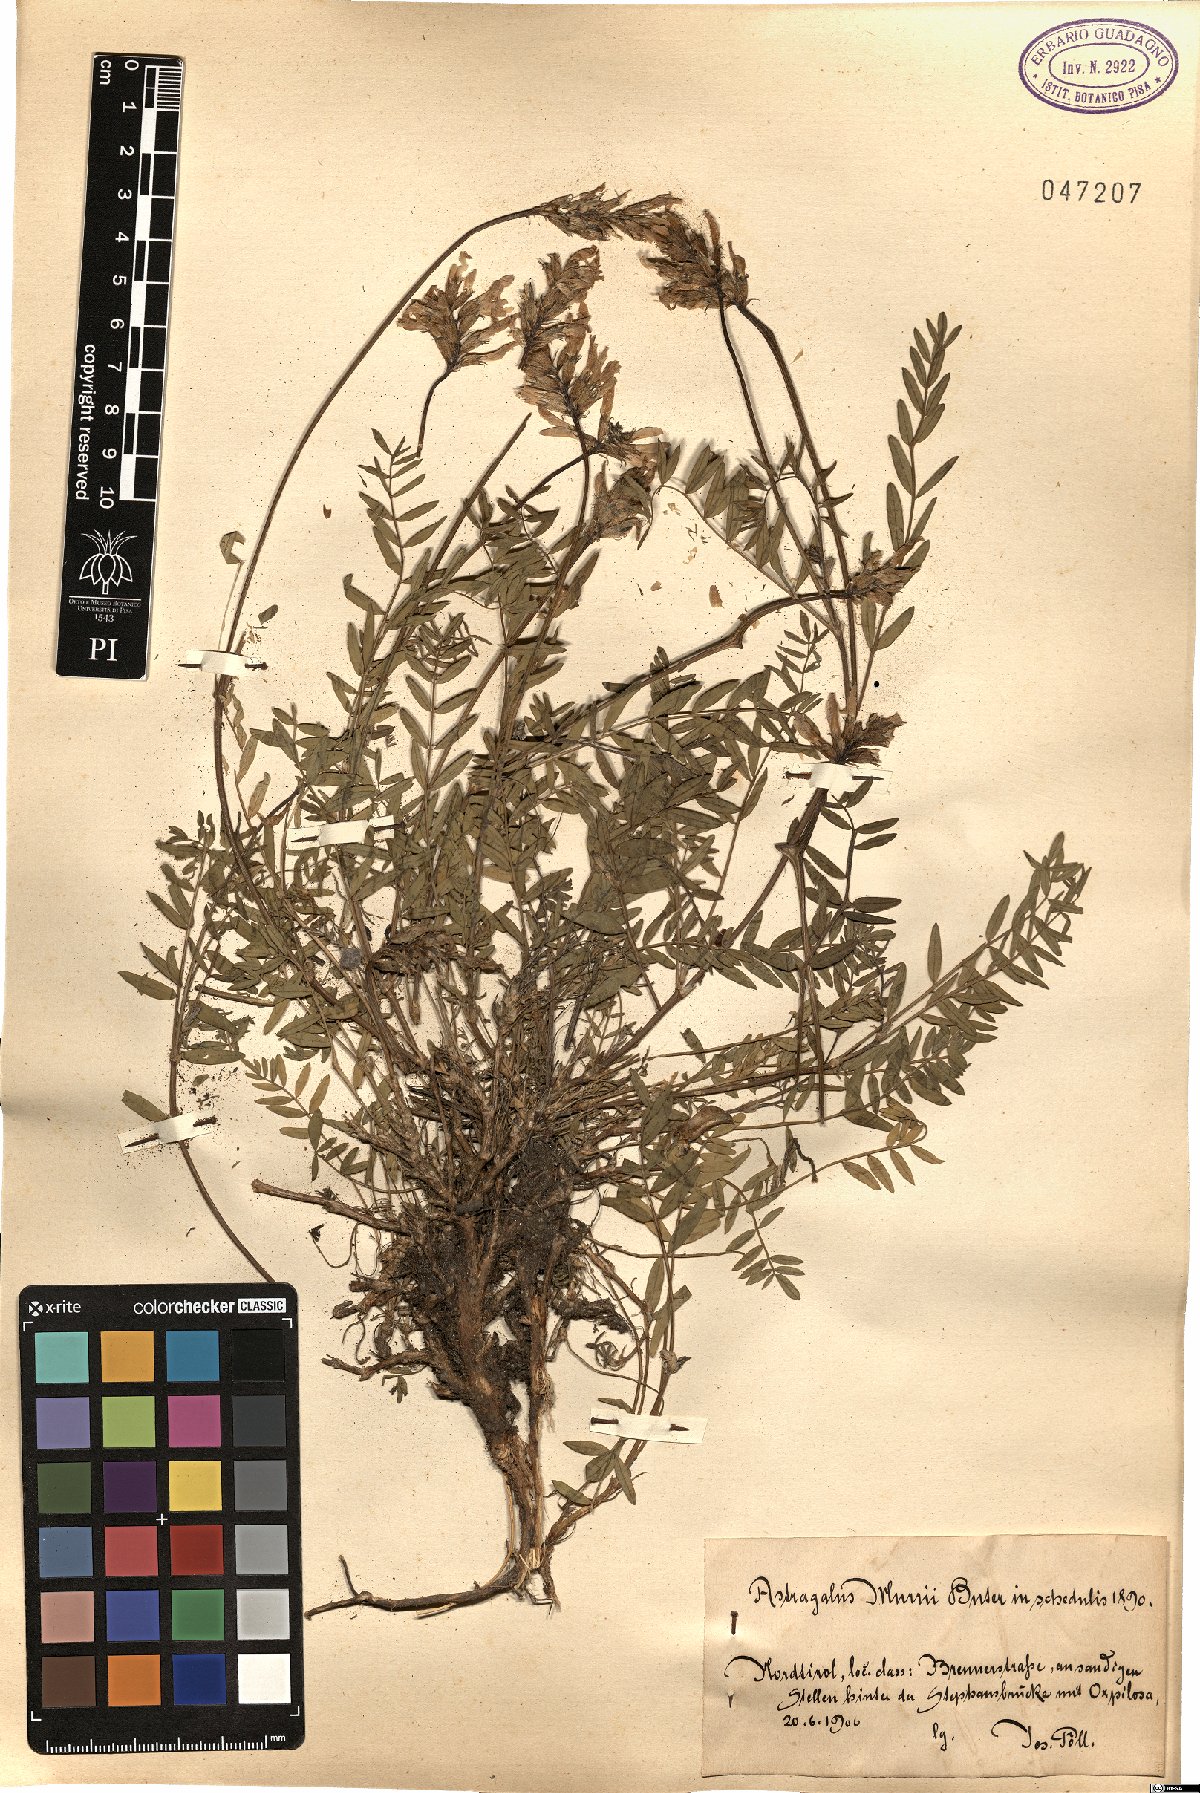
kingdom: Plantae
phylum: Tracheophyta
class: Magnoliopsida
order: Fabales
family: Fabaceae
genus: Astragalus
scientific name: Astragalus leontinus
